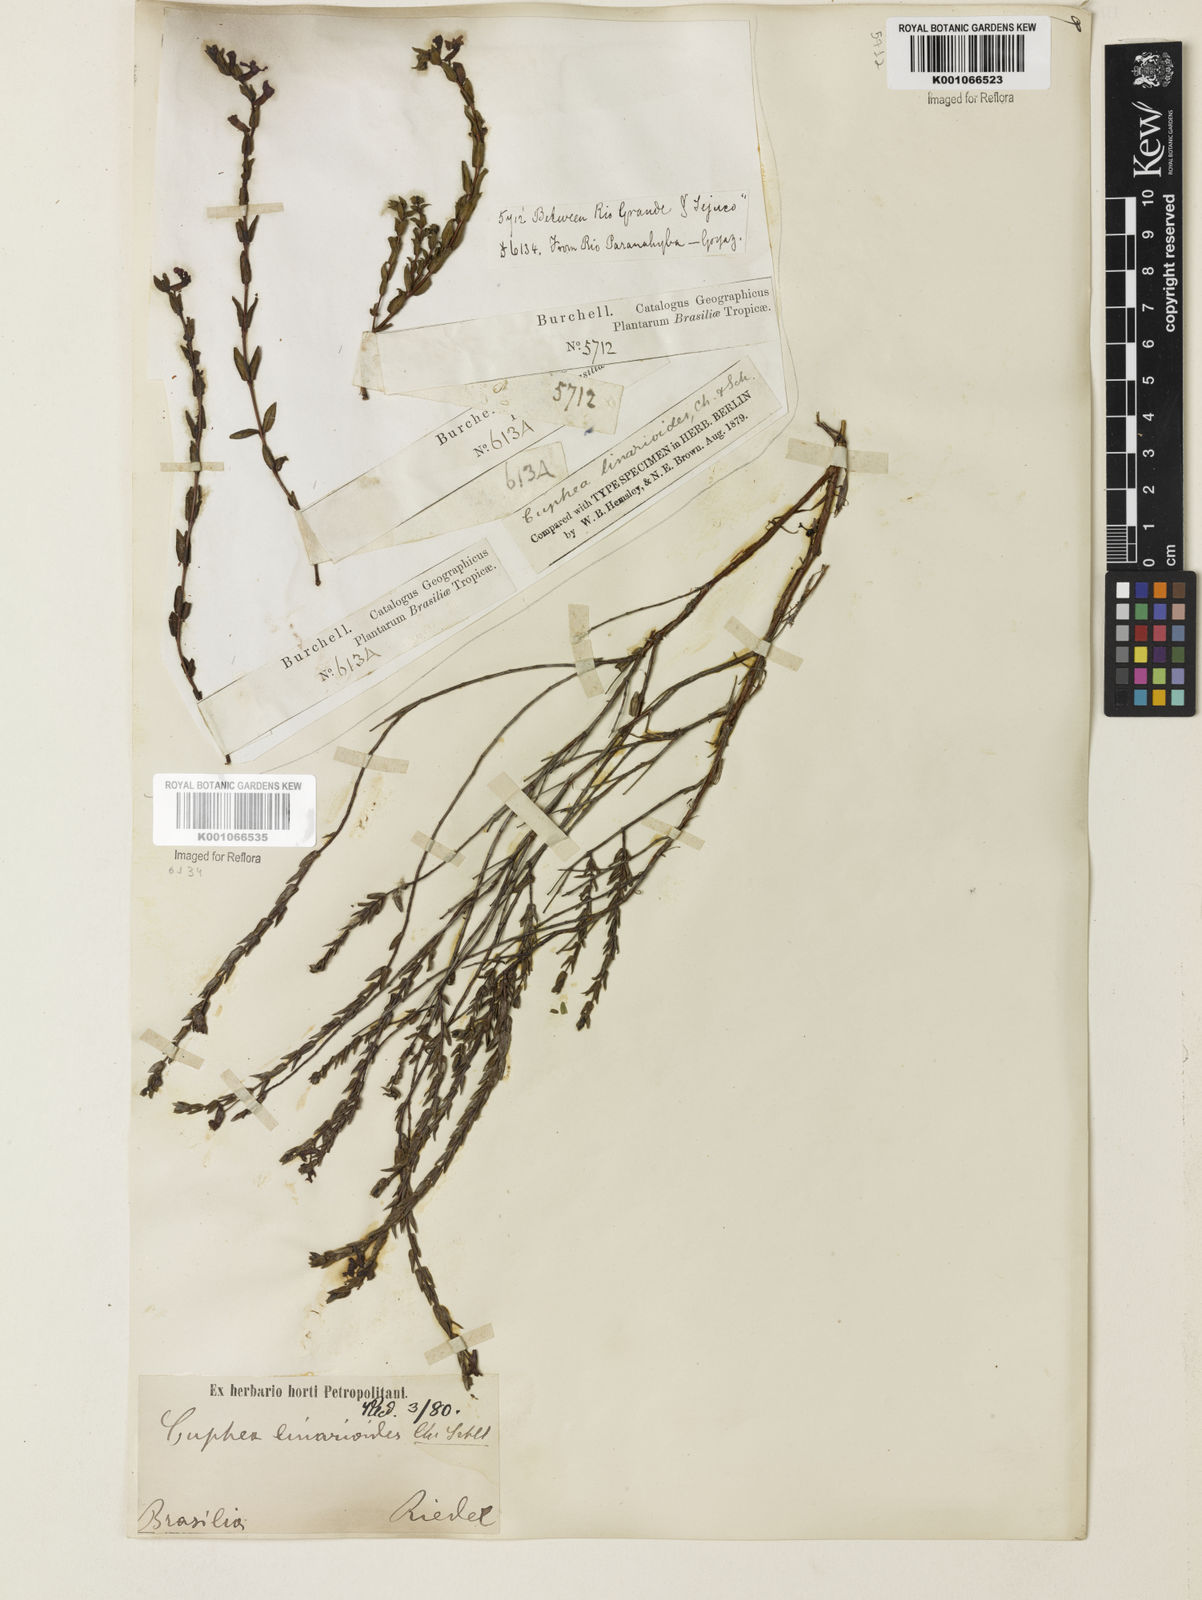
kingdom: Plantae
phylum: Tracheophyta
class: Magnoliopsida
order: Myrtales
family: Lythraceae
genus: Cuphea
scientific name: Cuphea linarioides
